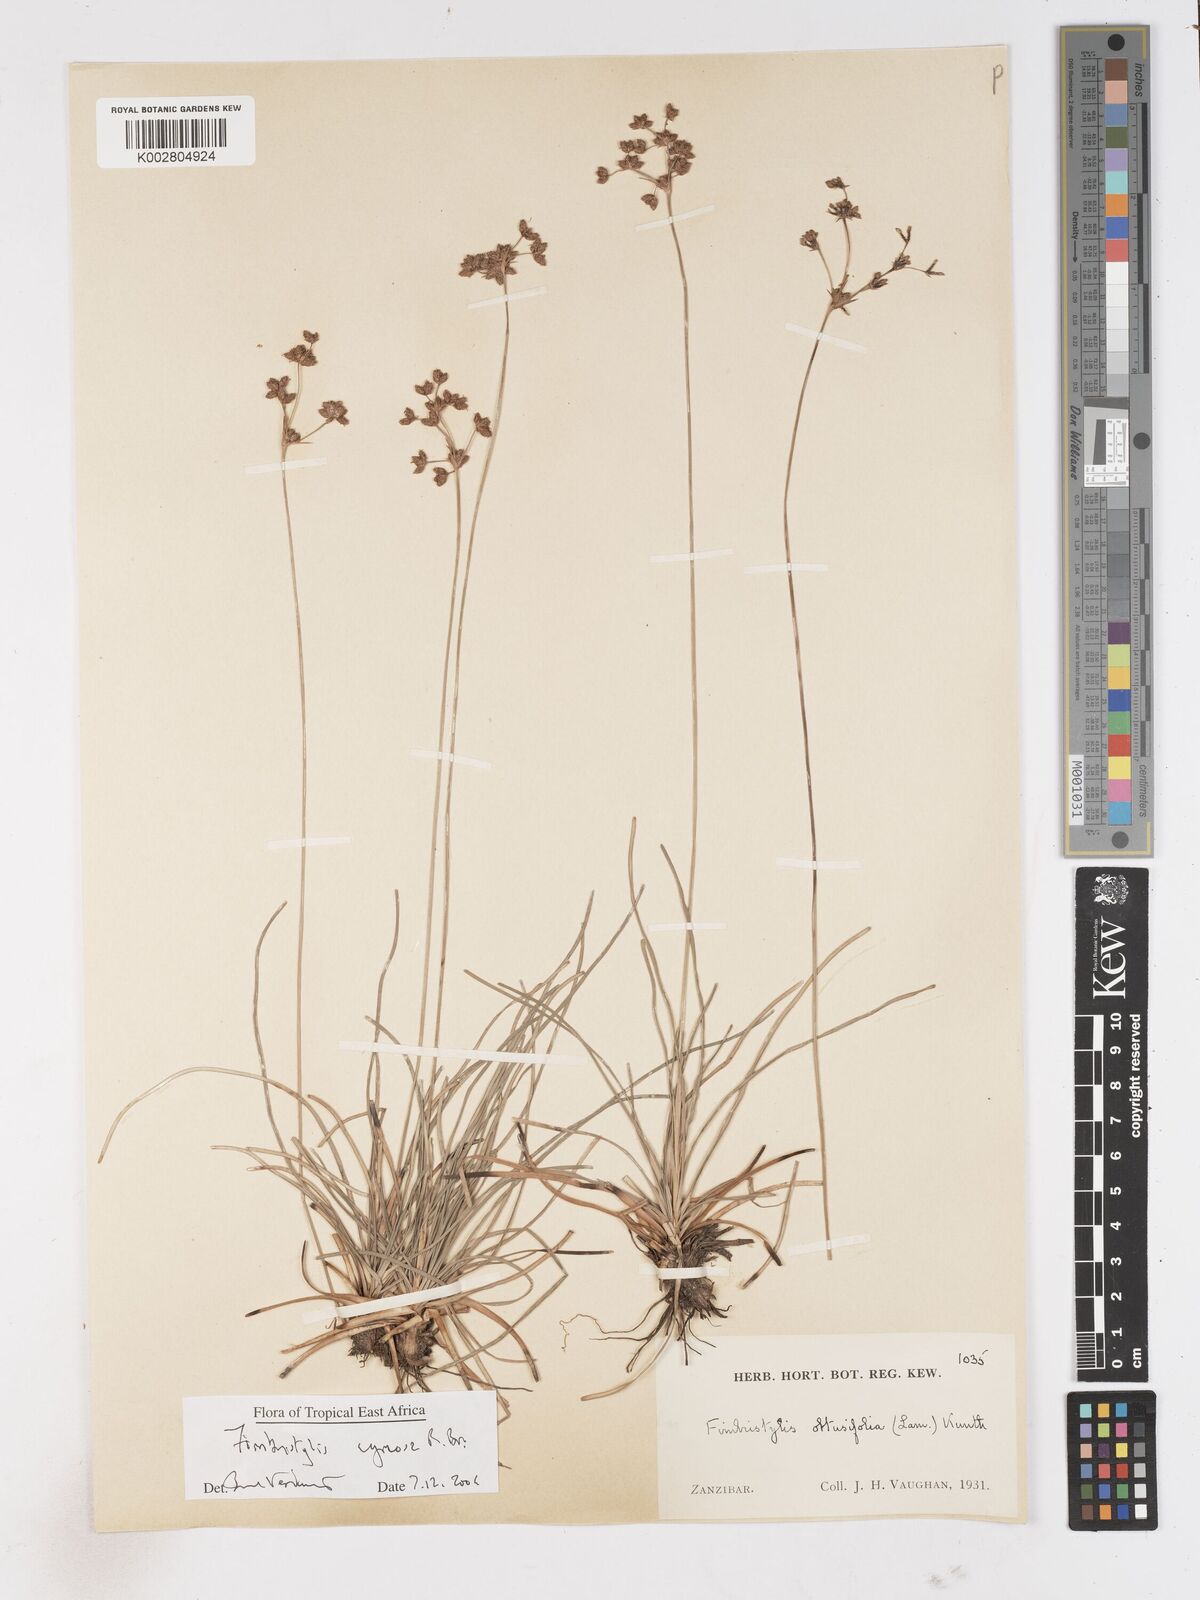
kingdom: Plantae
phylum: Tracheophyta
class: Liliopsida
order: Poales
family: Cyperaceae
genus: Fimbristylis
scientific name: Fimbristylis cymosa
